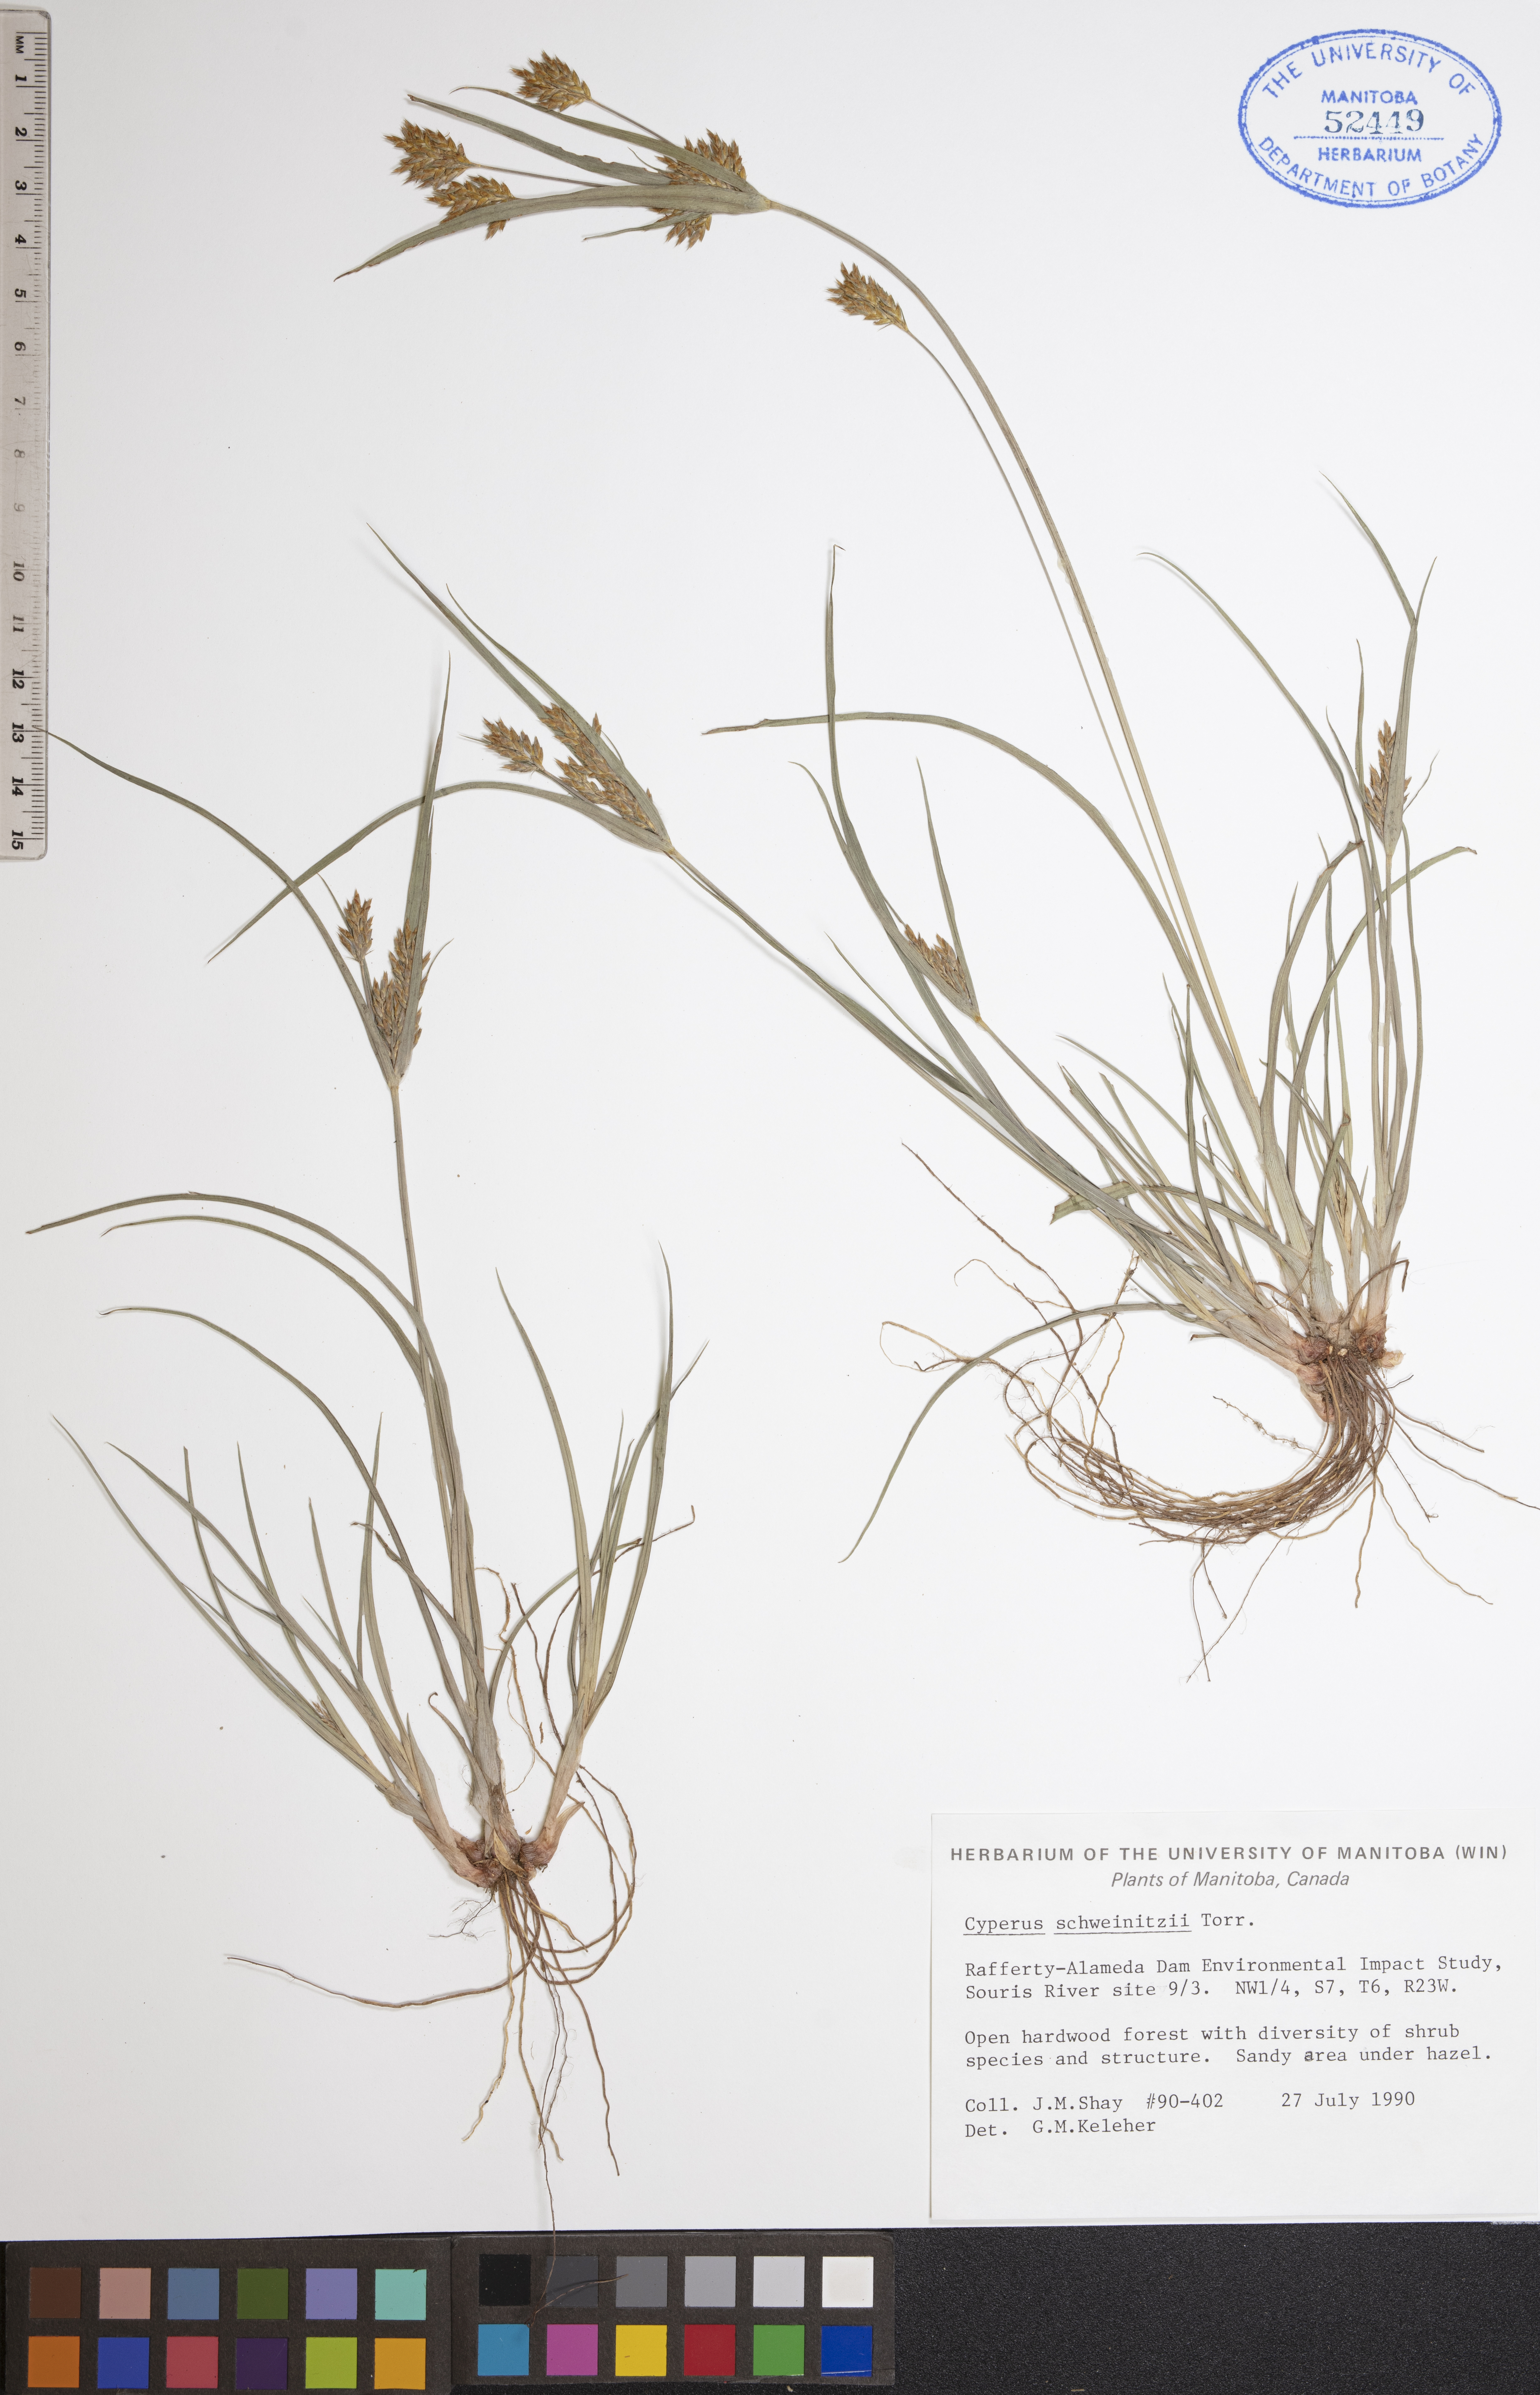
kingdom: Plantae
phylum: Tracheophyta
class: Liliopsida
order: Poales
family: Cyperaceae
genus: Cyperus
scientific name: Cyperus schweinitzii
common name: Schweinitz's cyperus
